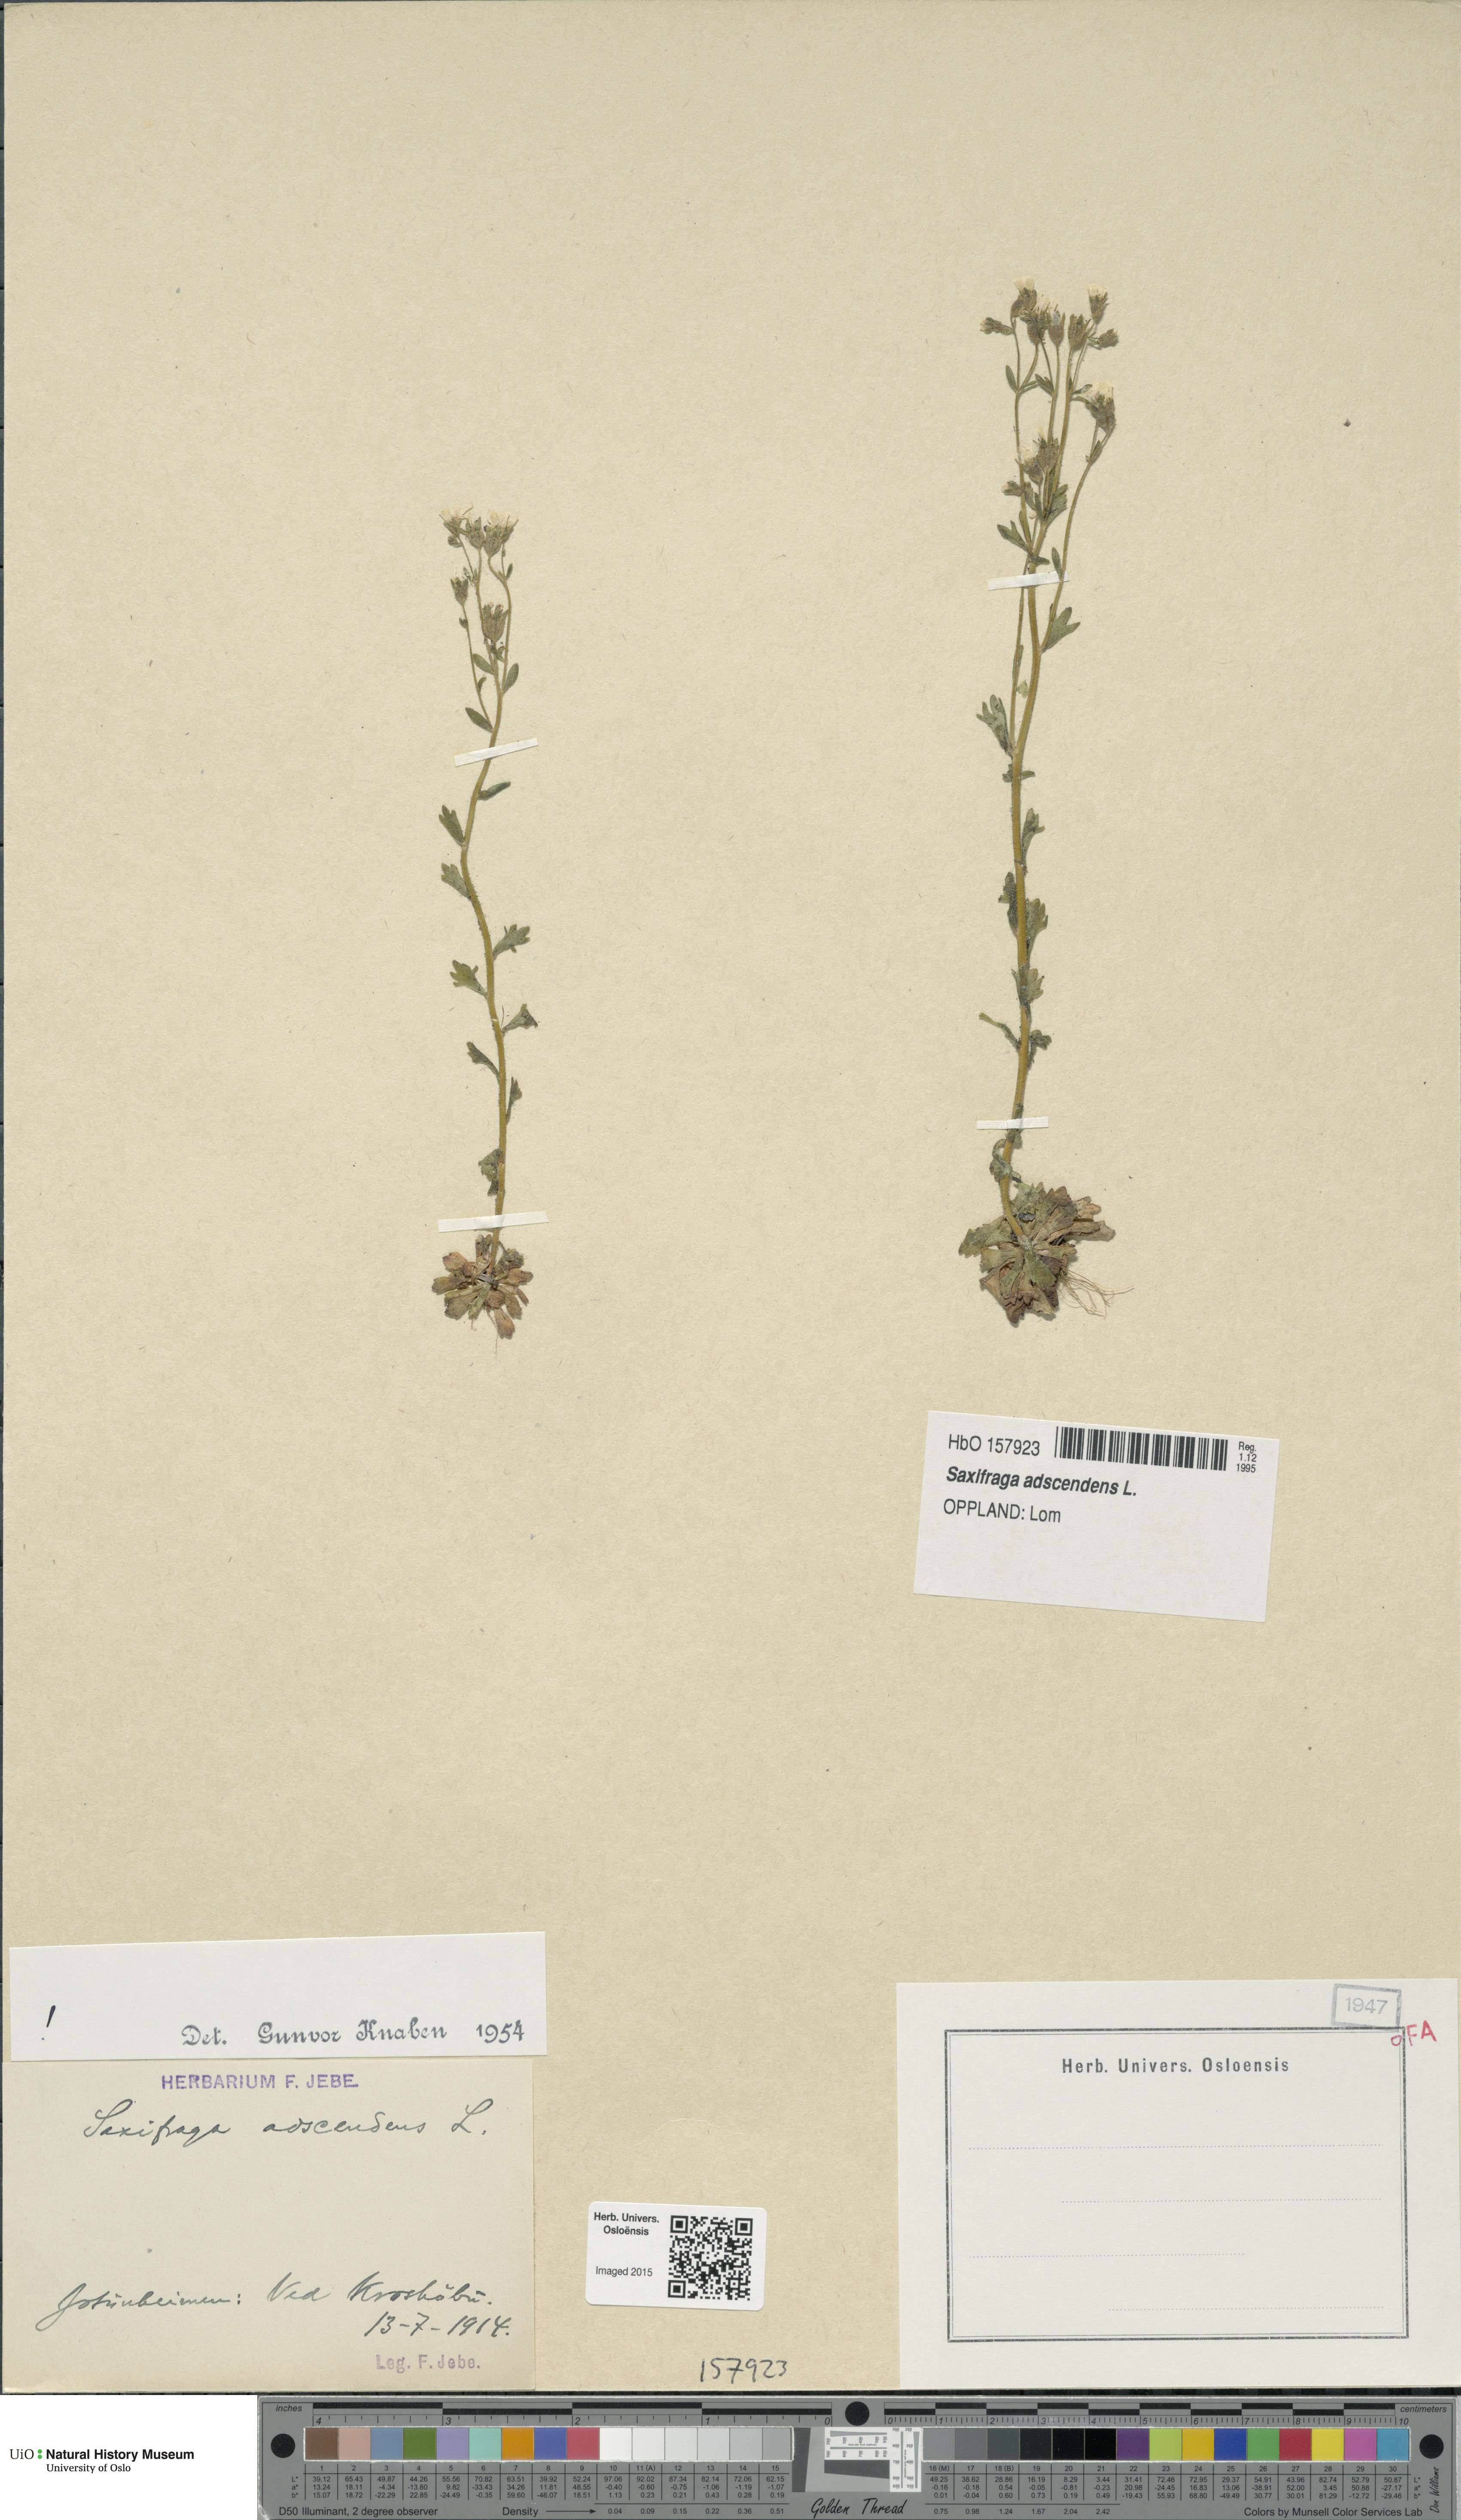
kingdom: Plantae
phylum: Tracheophyta
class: Magnoliopsida
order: Saxifragales
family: Saxifragaceae
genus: Saxifraga
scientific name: Saxifraga adscendens
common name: Ascending saxifrage
